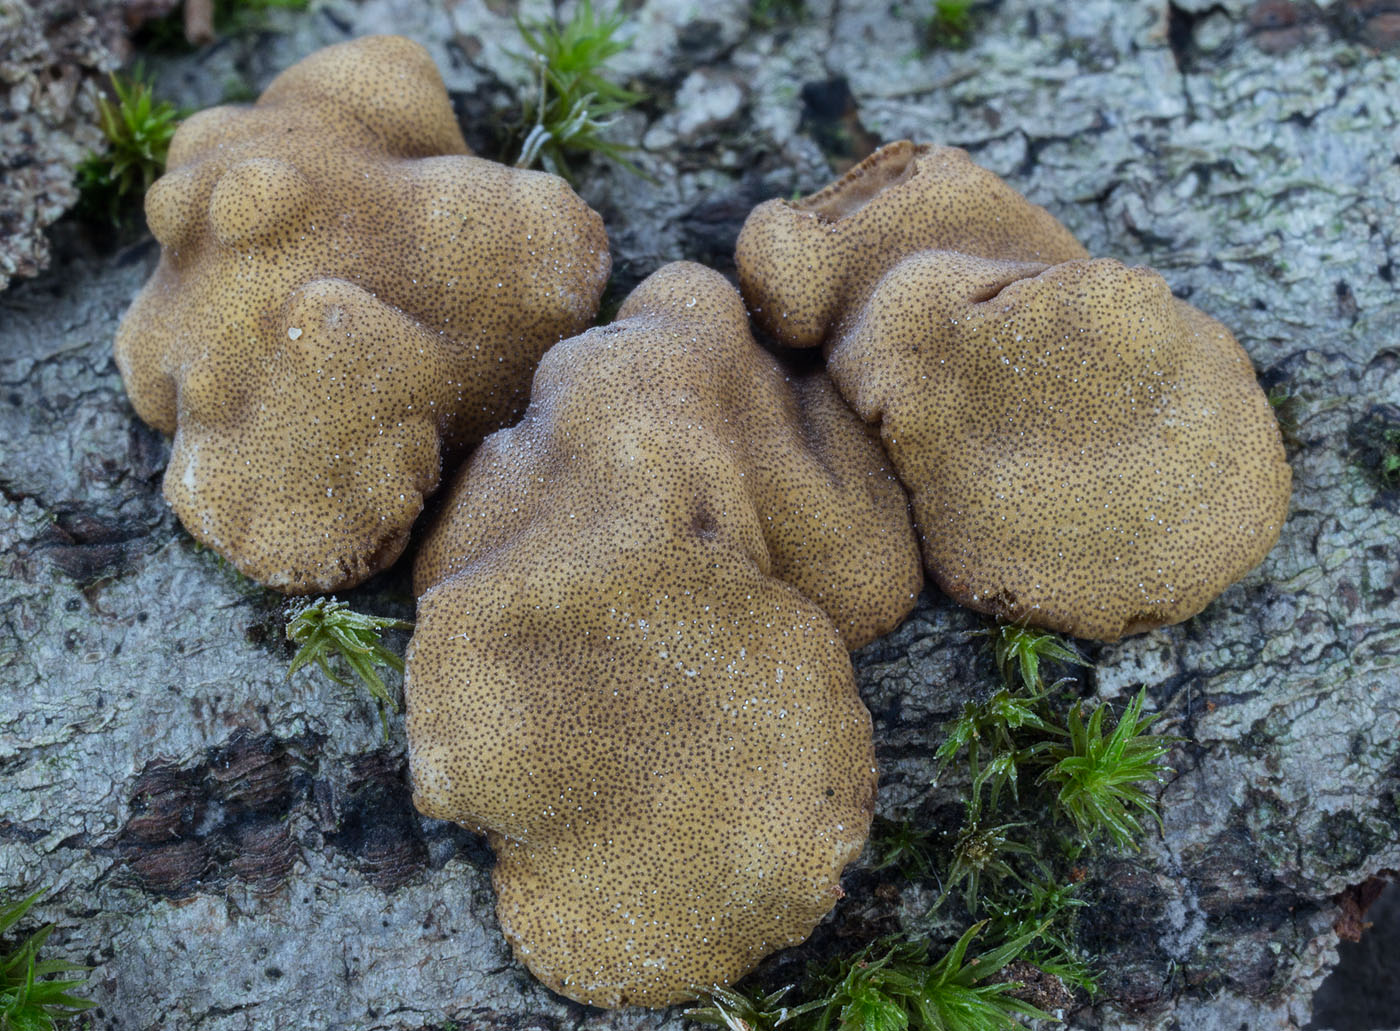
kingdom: Fungi
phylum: Ascomycota
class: Sordariomycetes
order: Hypocreales
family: Hypocreaceae
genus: Trichoderma
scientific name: Trichoderma britdaniae
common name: pilemose-kødkerne
